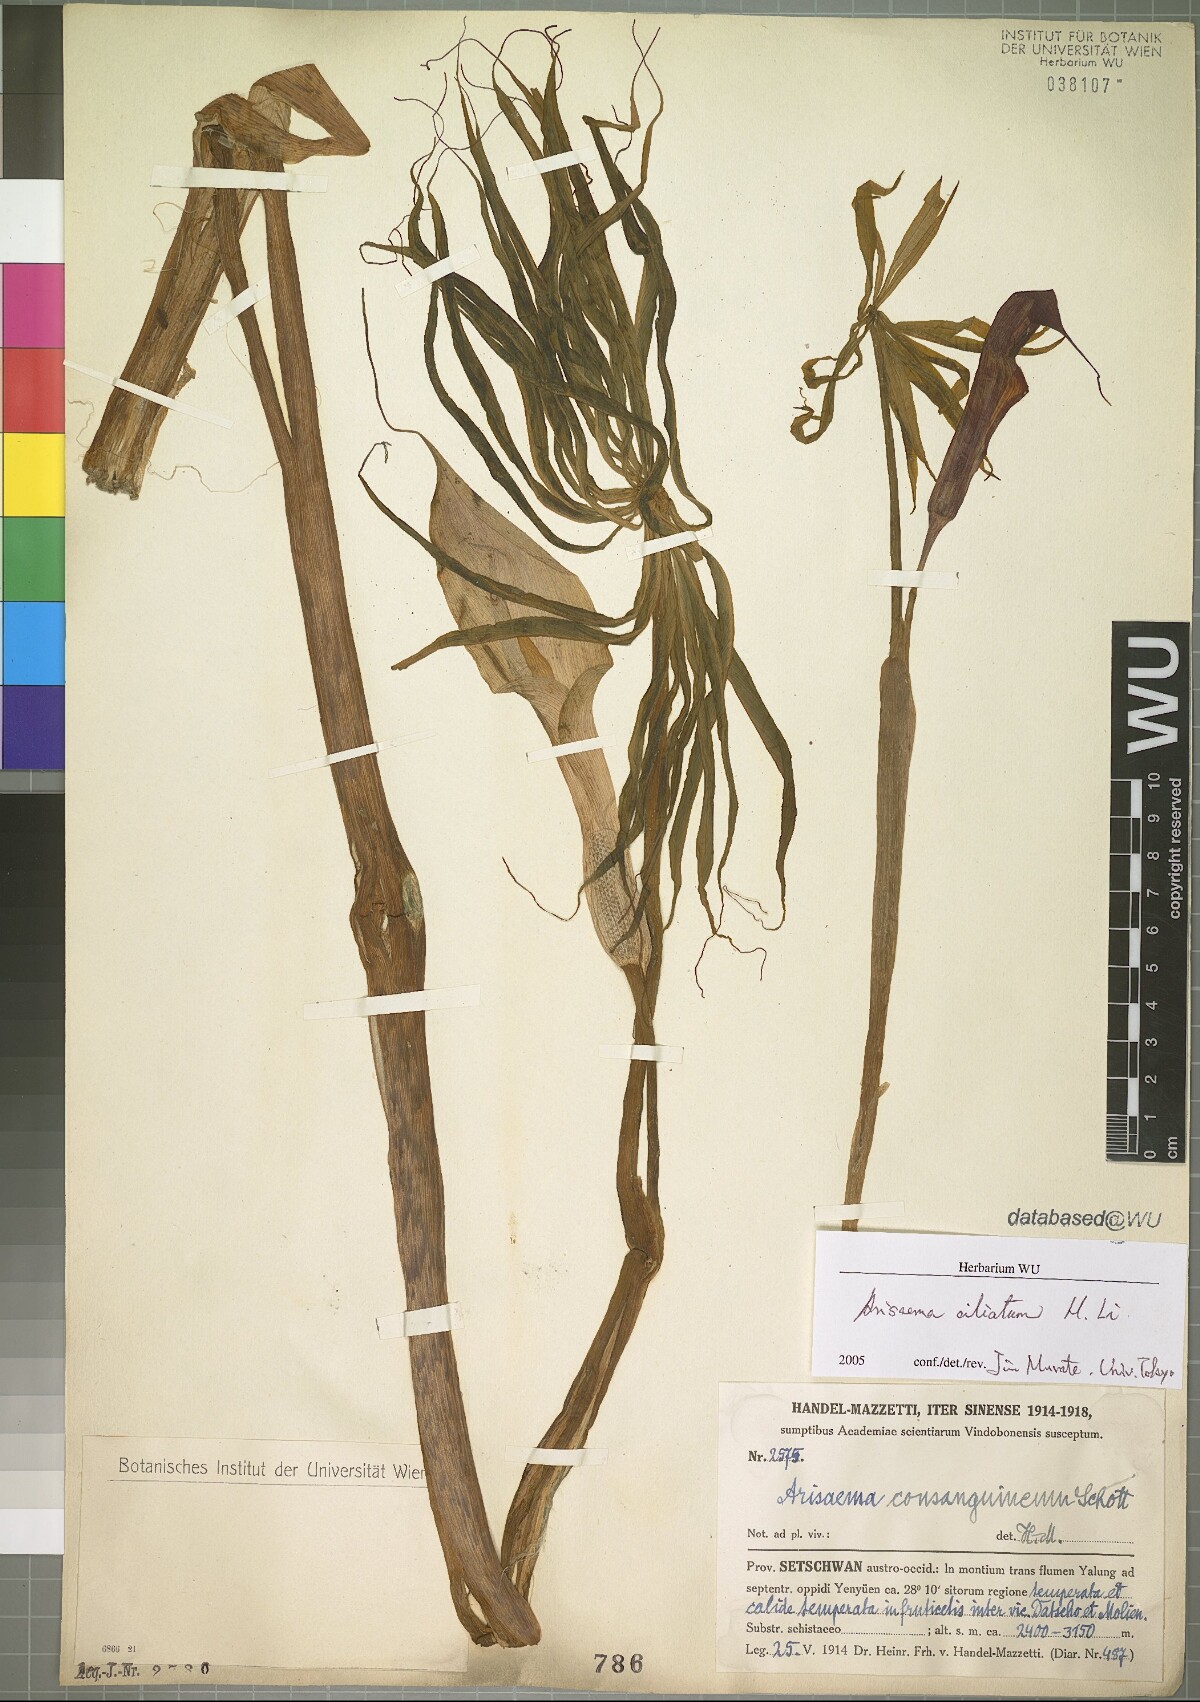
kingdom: Plantae
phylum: Tracheophyta
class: Liliopsida
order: Alismatales
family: Araceae
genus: Arisaema
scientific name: Arisaema ciliatum
